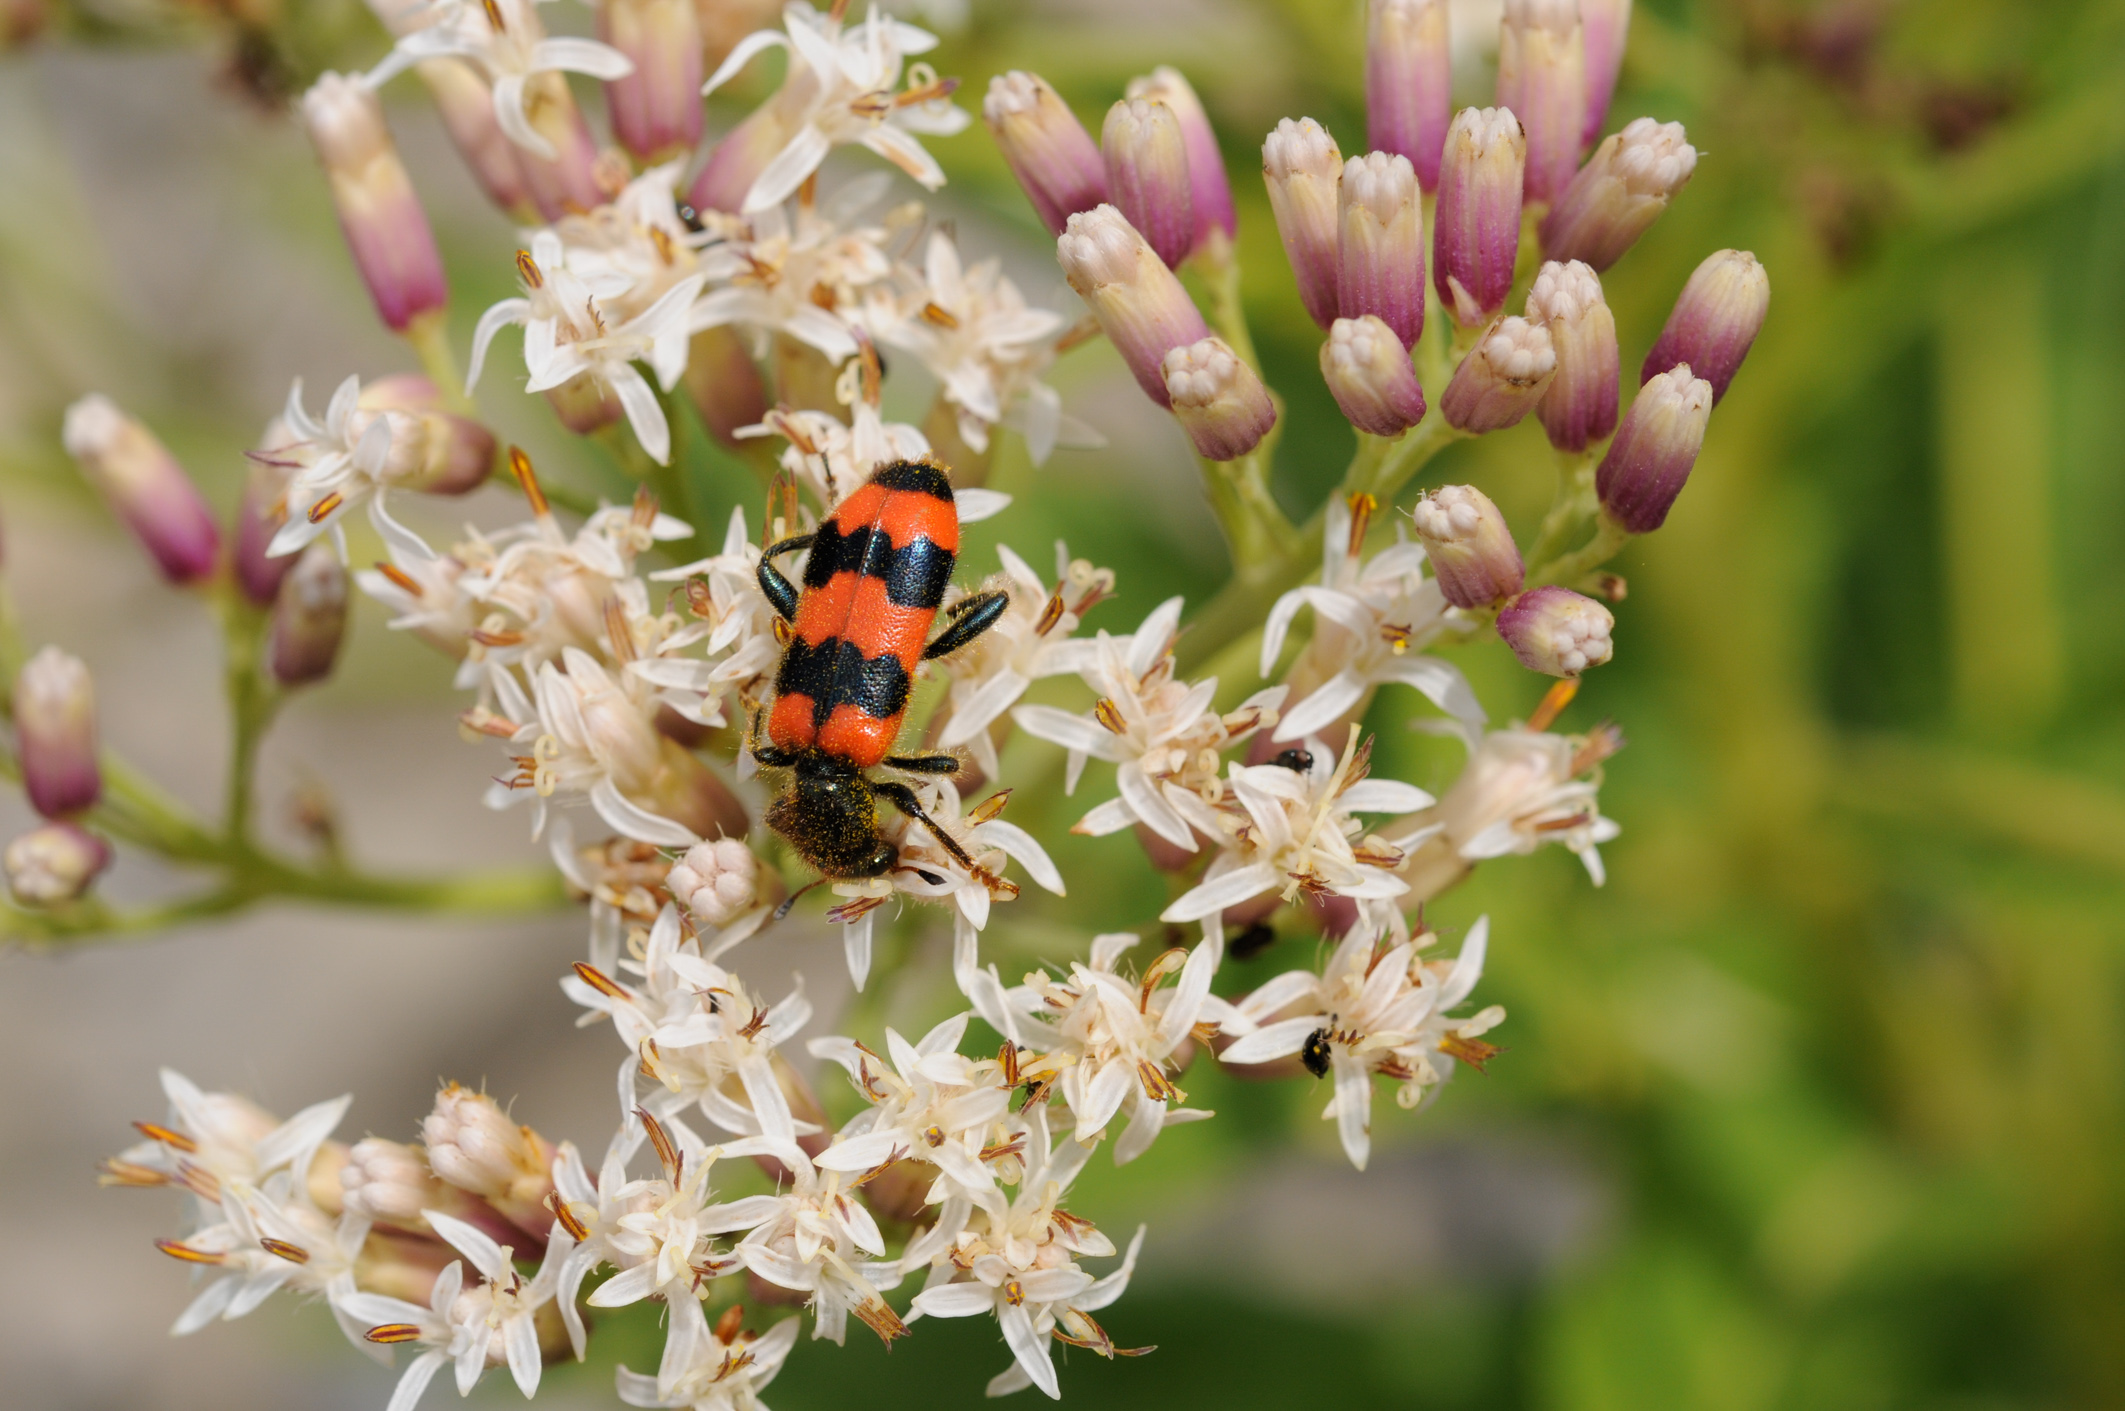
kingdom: Animalia
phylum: Arthropoda
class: Insecta
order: Coleoptera
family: Cleridae
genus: Trichodes
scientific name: Trichodes apiarius
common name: Bee-eating beetle
